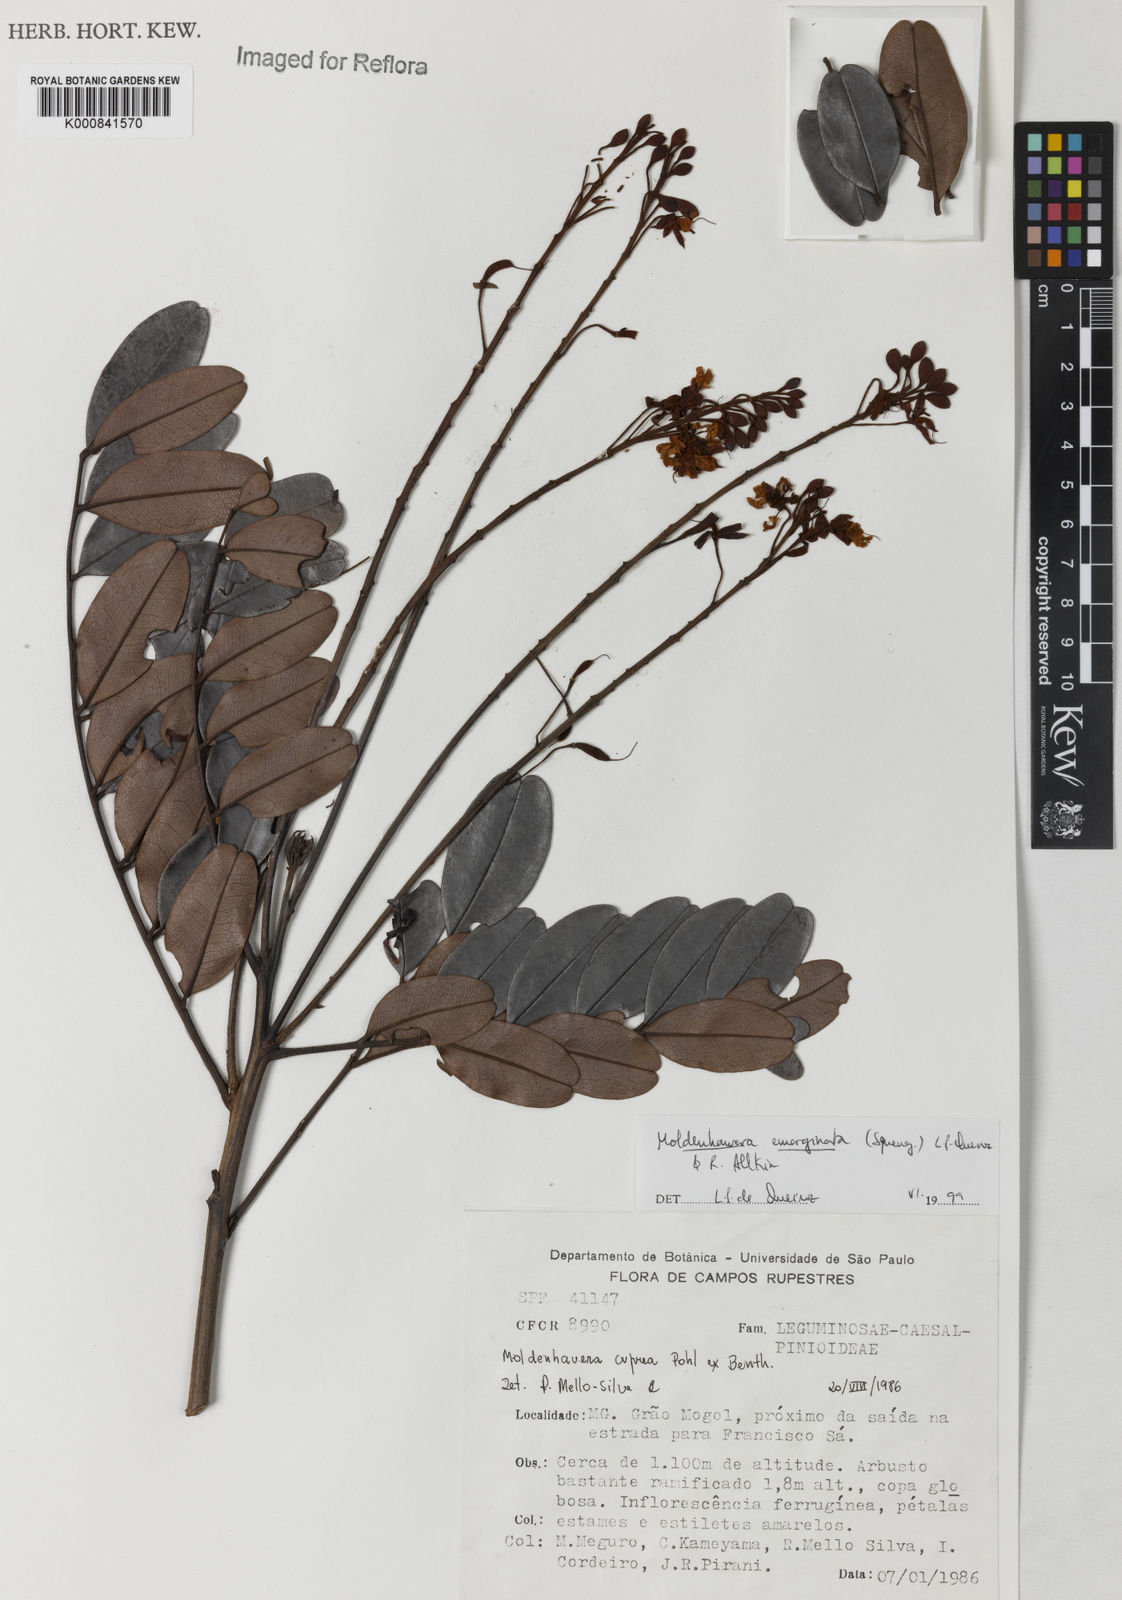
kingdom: Plantae
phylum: Tracheophyta
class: Magnoliopsida
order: Fabales
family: Fabaceae
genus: Moldenhawera
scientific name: Moldenhawera emarginata
